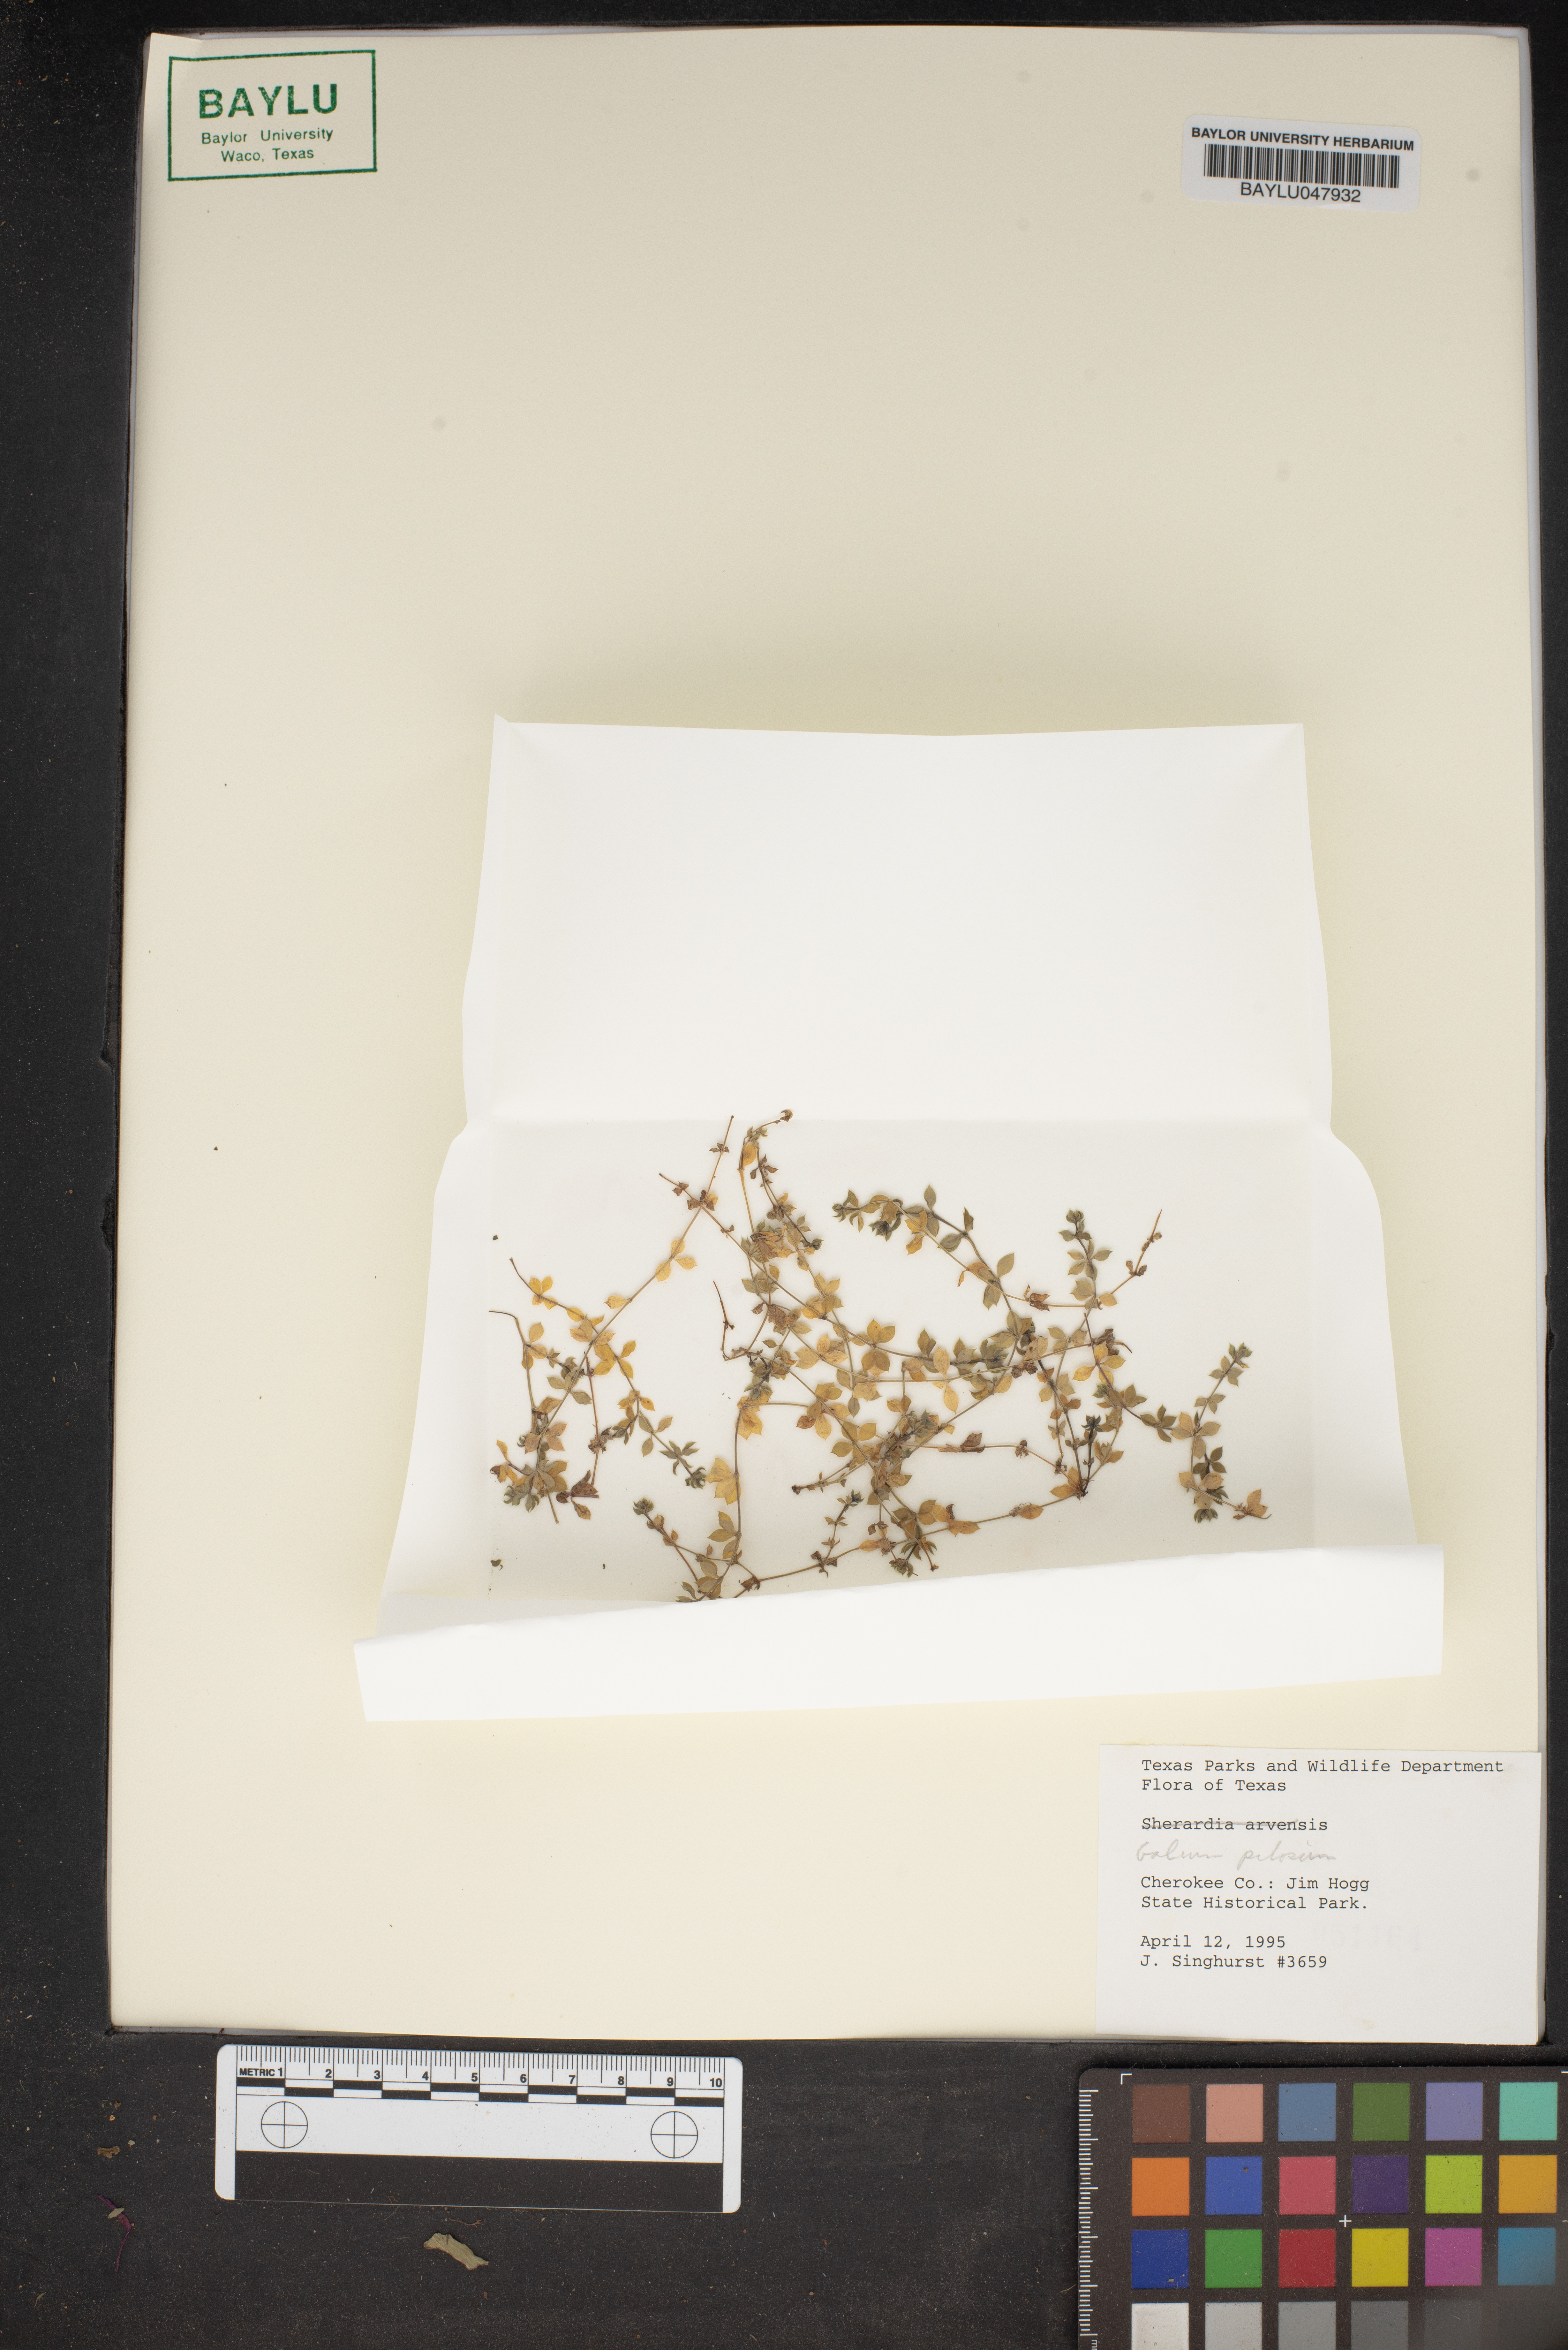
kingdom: Plantae
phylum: Tracheophyta
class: Magnoliopsida
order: Gentianales
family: Rubiaceae
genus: Galium
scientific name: Galium pilosum
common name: Hairy bedstraw
